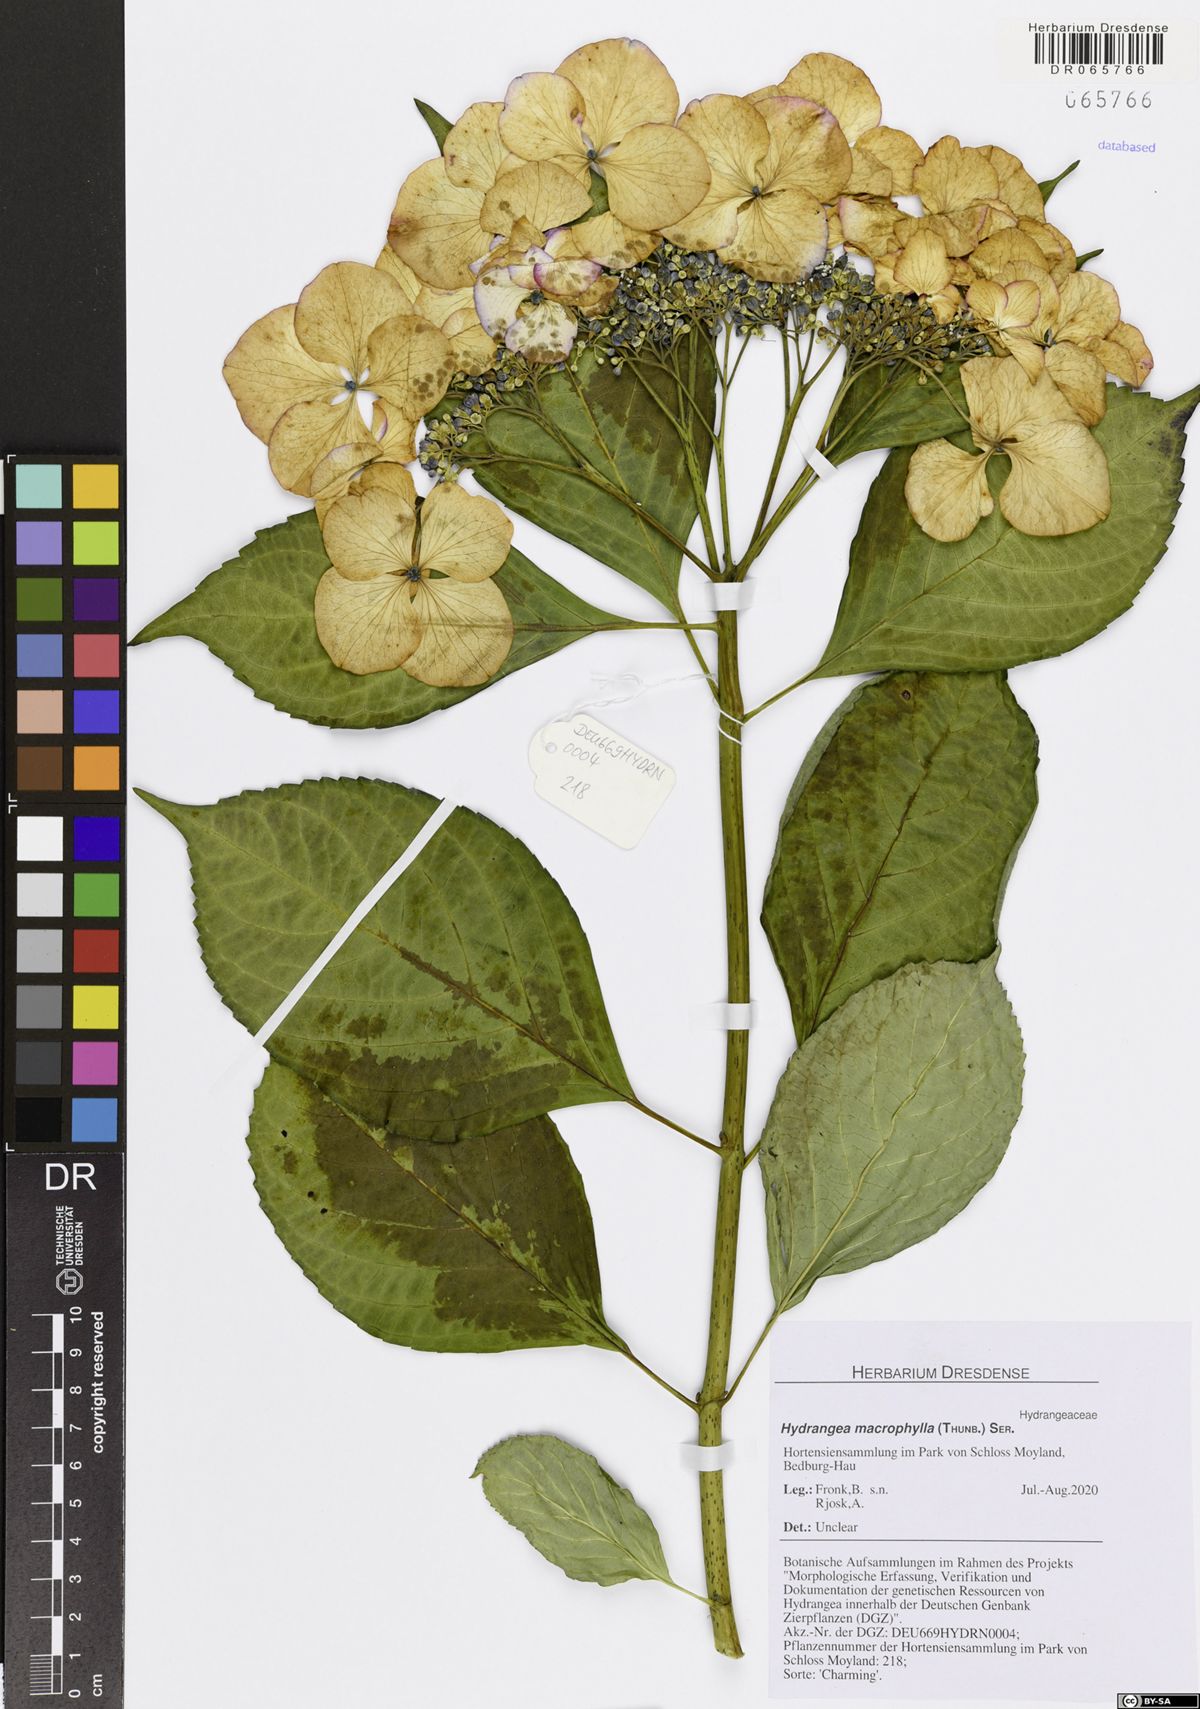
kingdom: Plantae
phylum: Tracheophyta
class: Magnoliopsida
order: Cornales
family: Hydrangeaceae
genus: Hydrangea
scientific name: Hydrangea macrophylla
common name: Hydrangea
